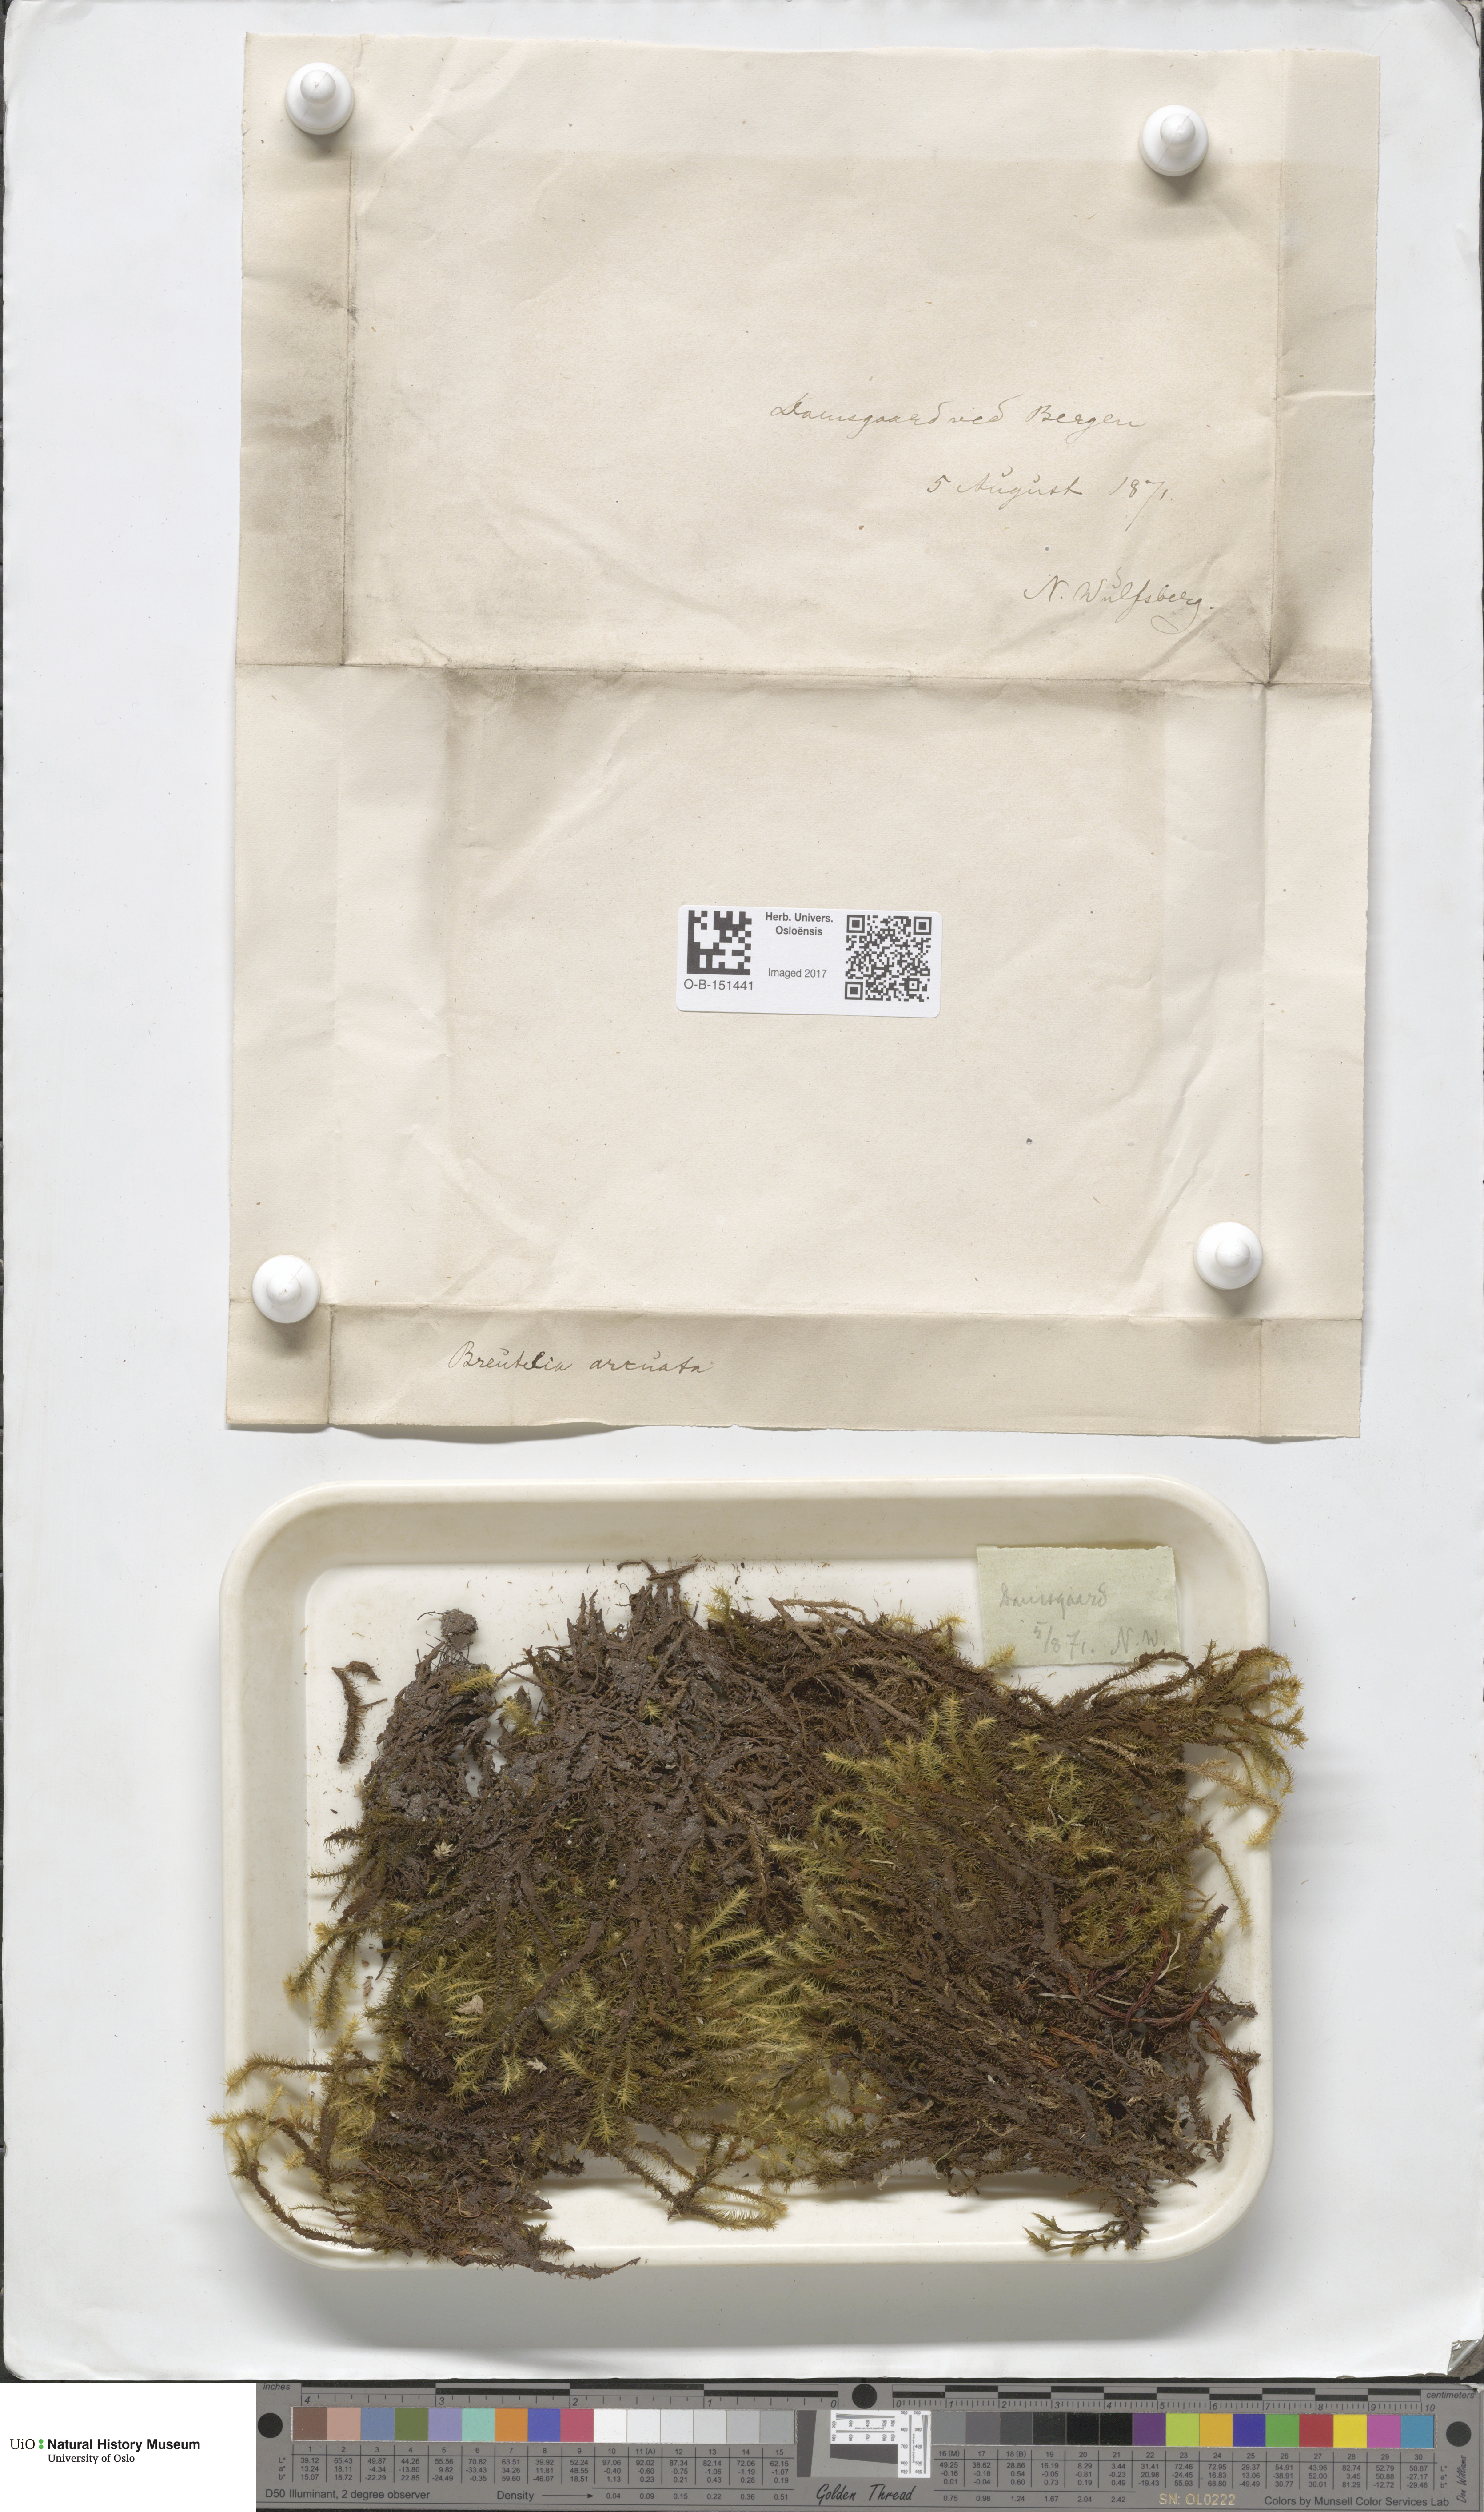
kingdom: Plantae
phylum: Bryophyta
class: Bryopsida
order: Bartramiales
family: Bartramiaceae
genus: Breutelia
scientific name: Breutelia chrysocoma
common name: Bottle-brush moss
